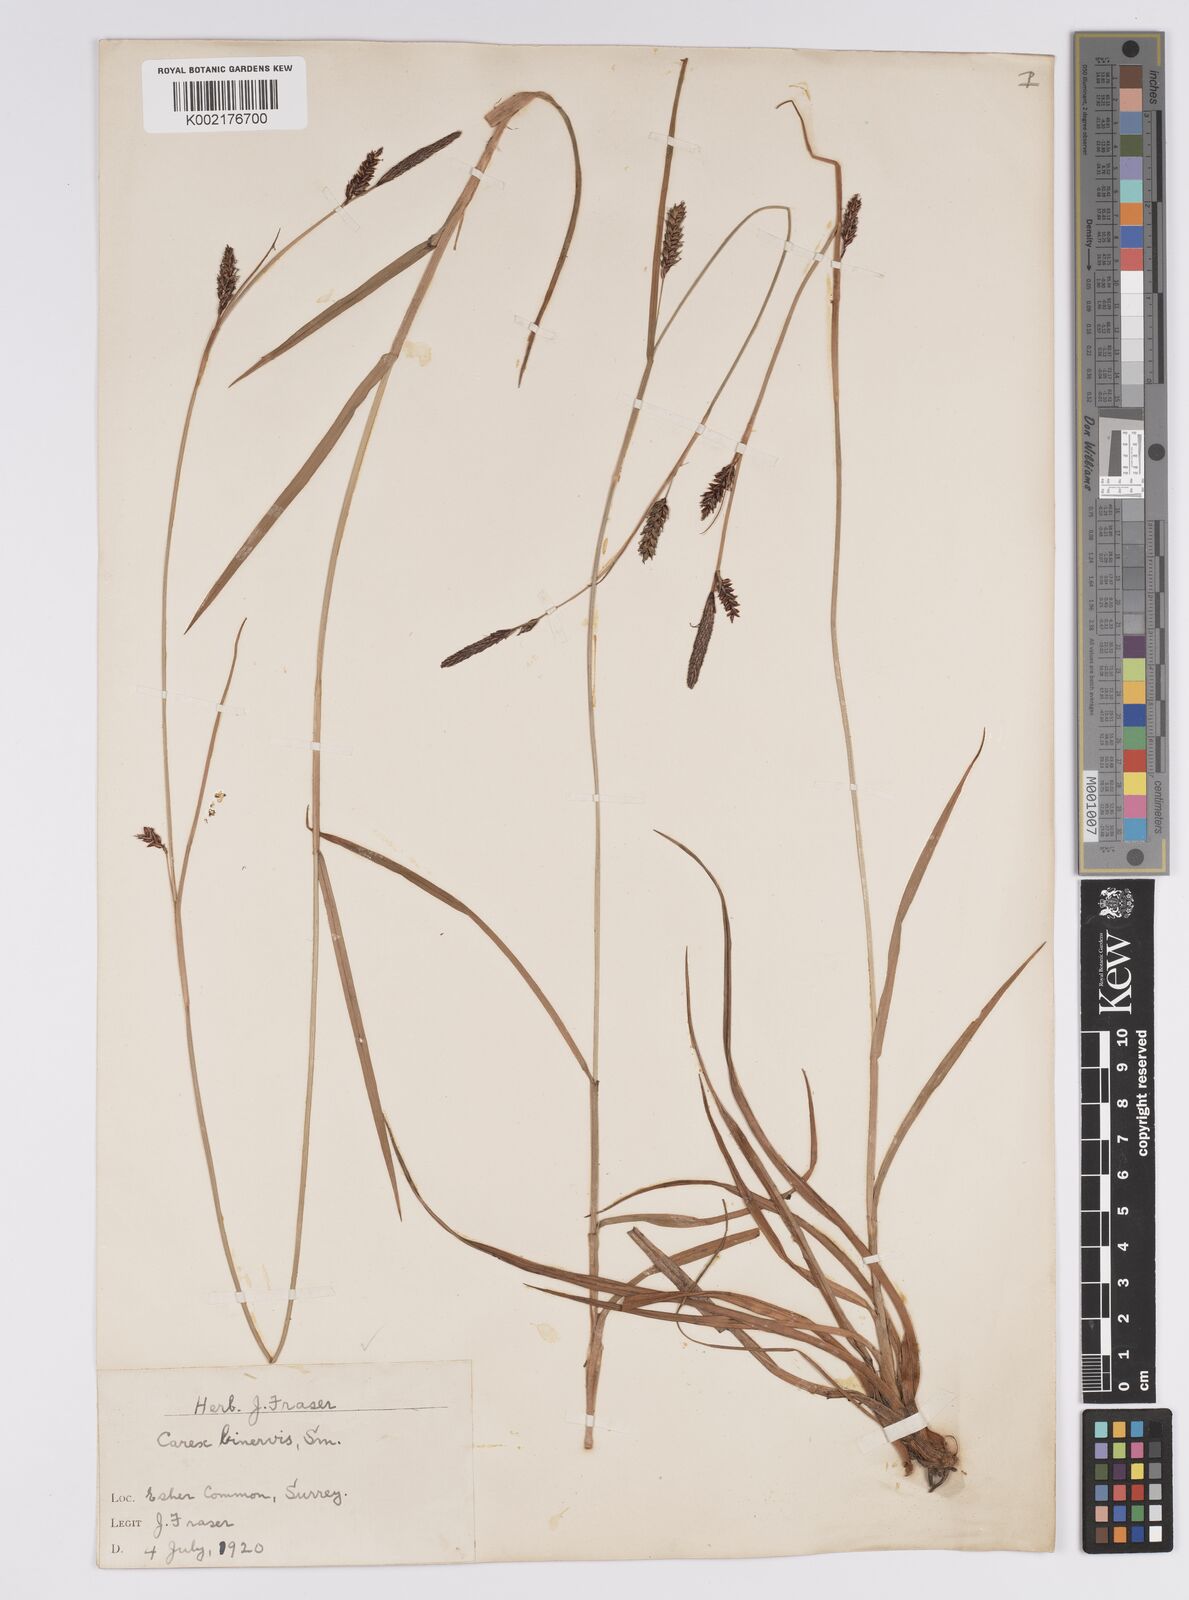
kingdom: Plantae
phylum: Tracheophyta
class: Liliopsida
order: Poales
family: Cyperaceae
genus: Carex
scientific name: Carex binervis
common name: Green-ribbed sedge
